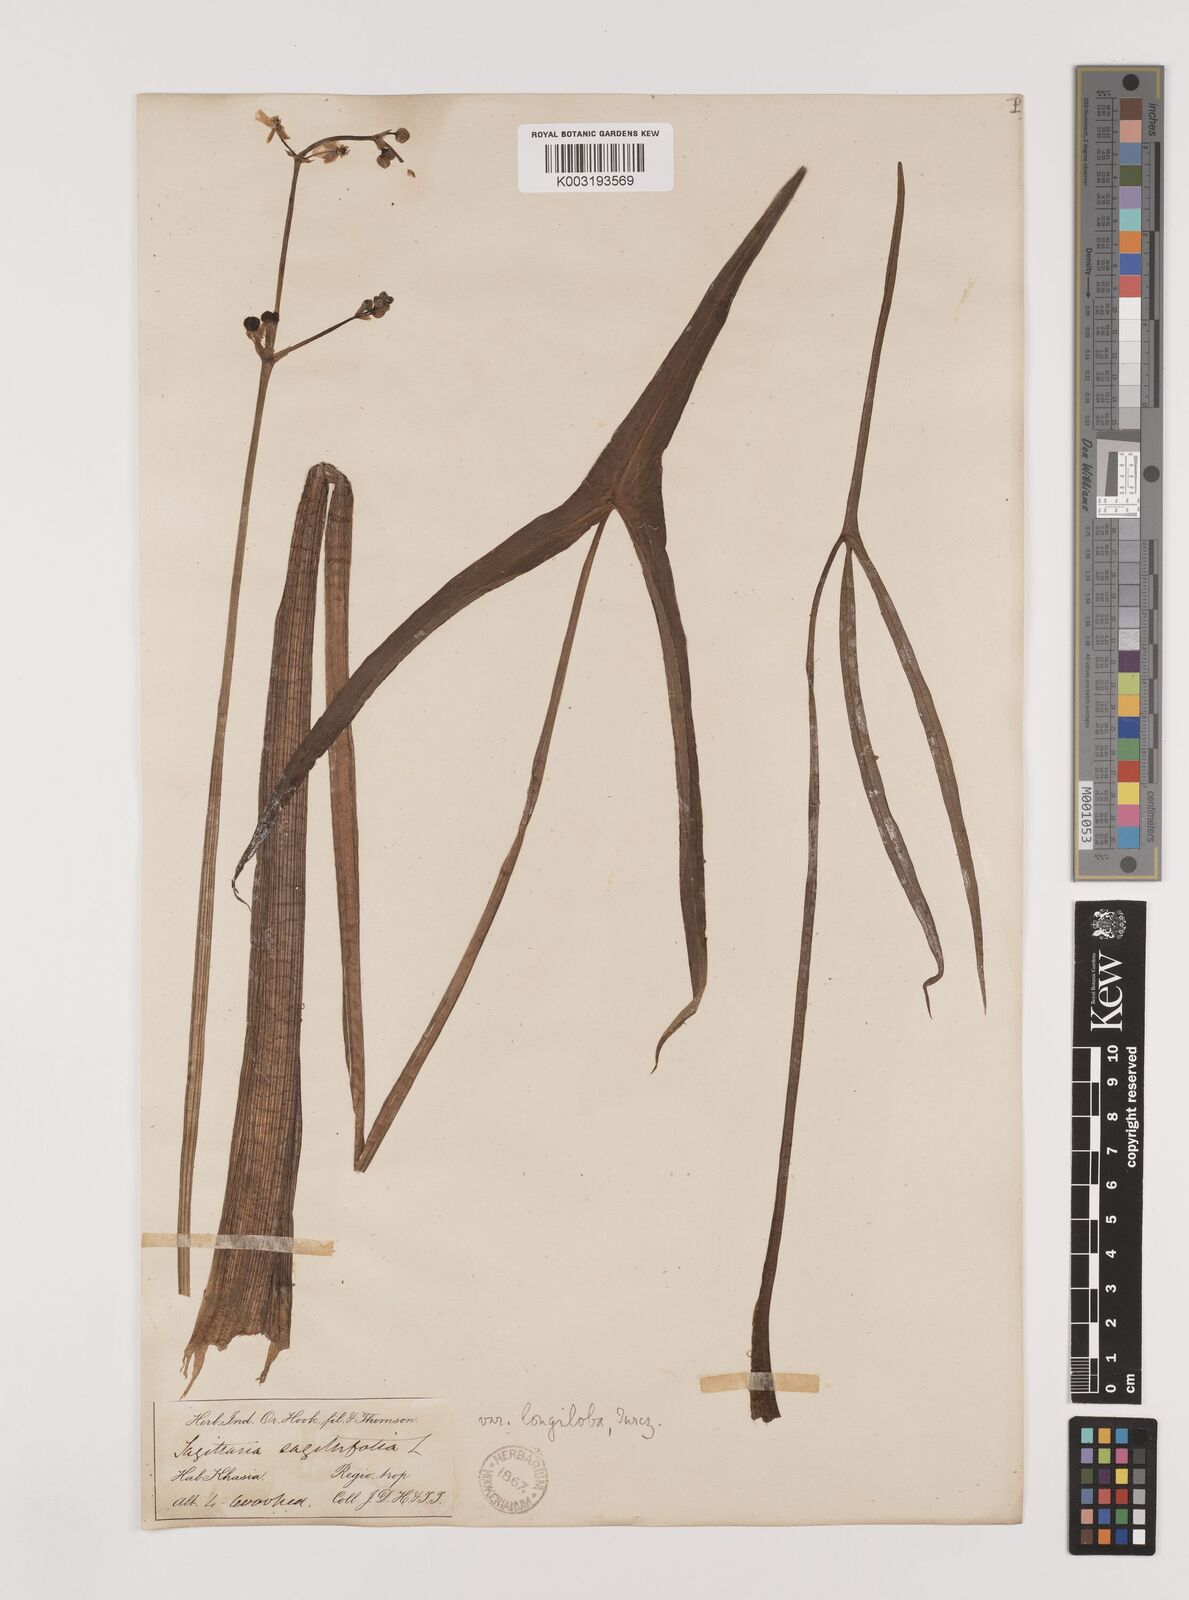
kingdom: Plantae
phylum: Tracheophyta
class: Liliopsida
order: Alismatales
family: Alismataceae
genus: Sagittaria
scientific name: Sagittaria sagittifolia
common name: Arrowhead
